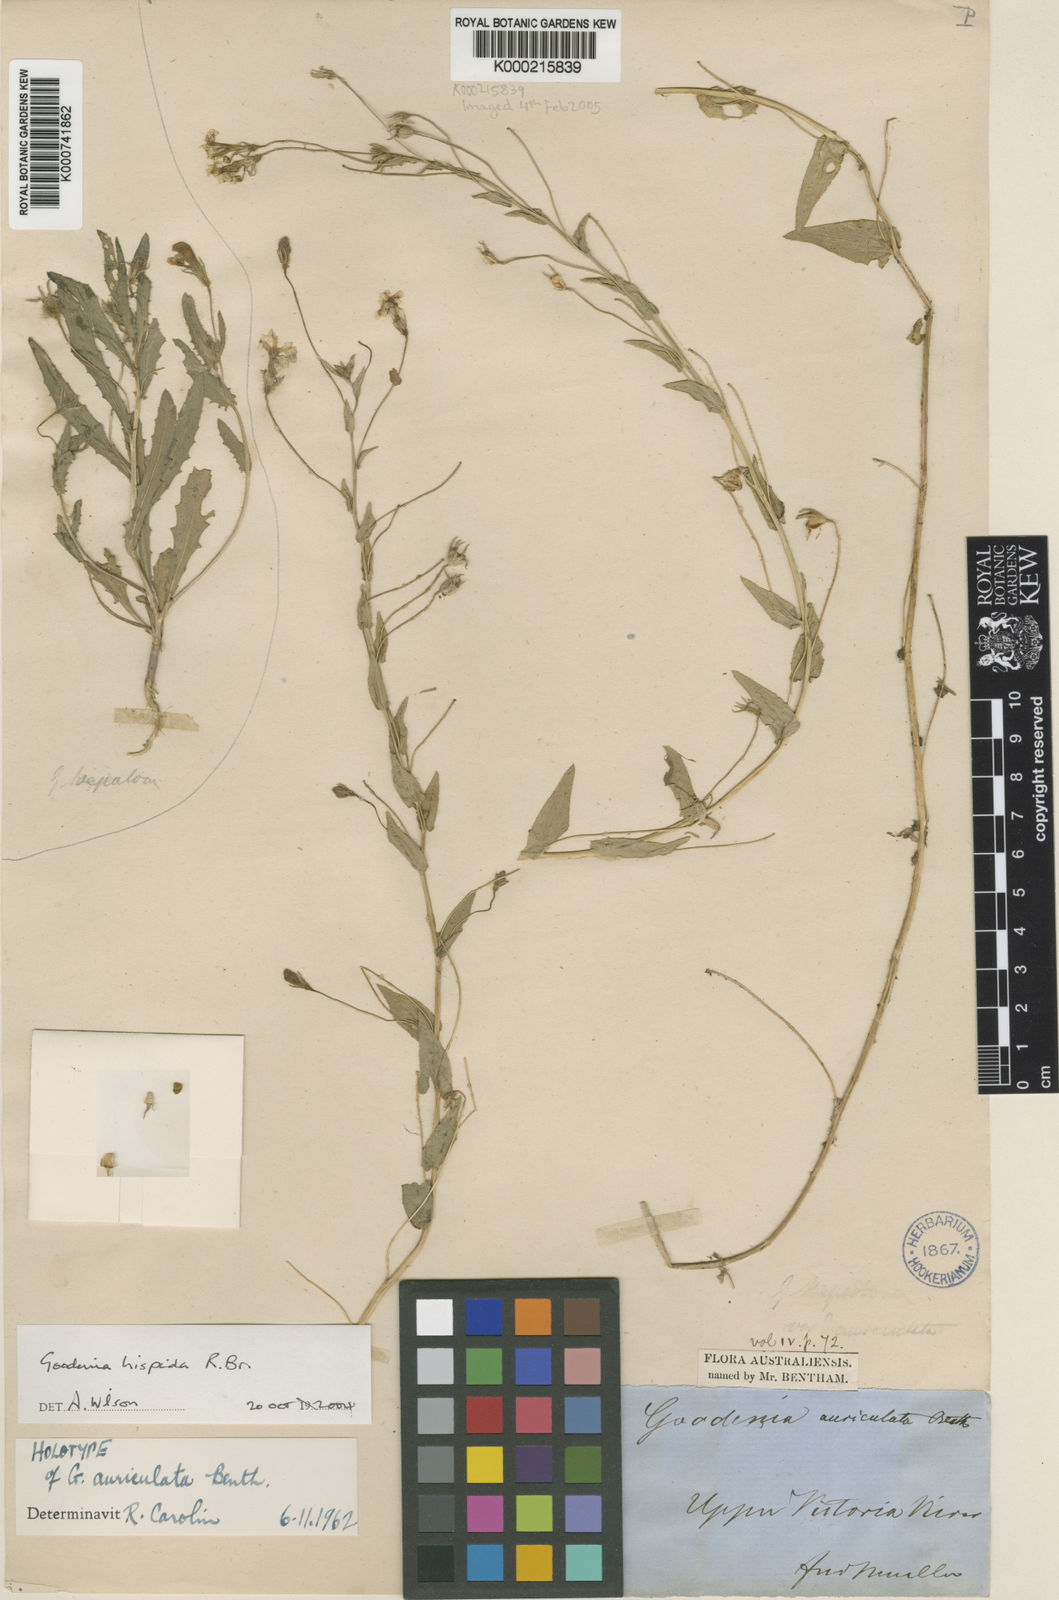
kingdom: Plantae
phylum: Tracheophyta
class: Magnoliopsida
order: Asterales
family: Goodeniaceae
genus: Goodenia
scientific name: Goodenia hispida
